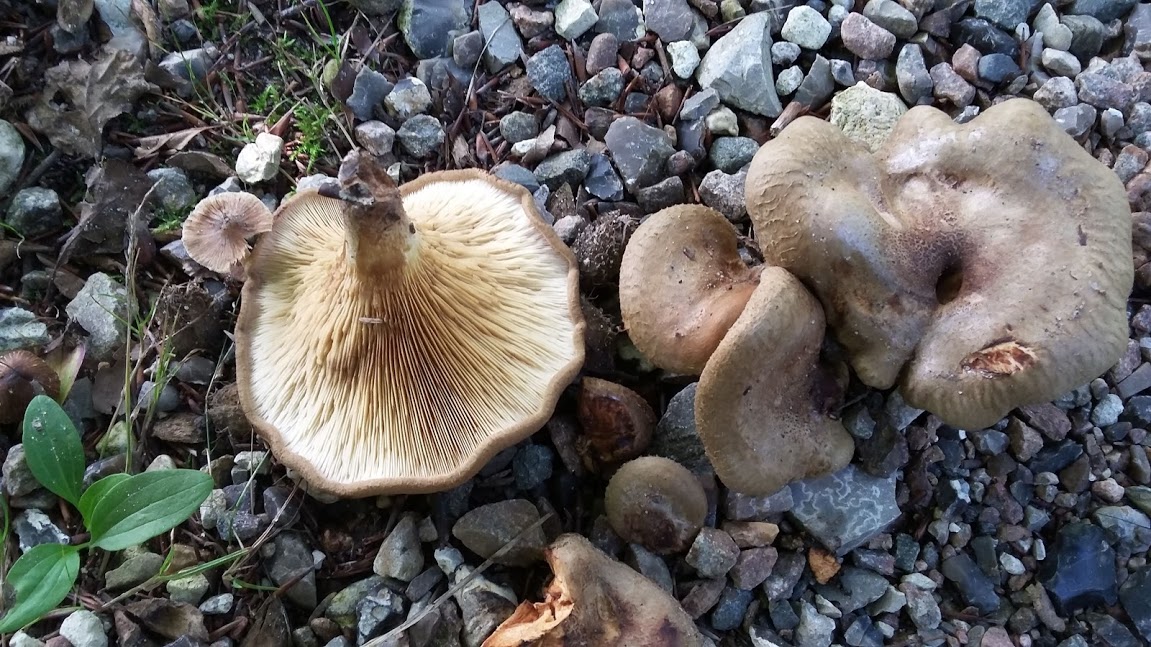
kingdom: Fungi
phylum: Basidiomycota
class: Agaricomycetes
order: Boletales
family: Paxillaceae
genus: Paxillus
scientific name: Paxillus rubicundulus
